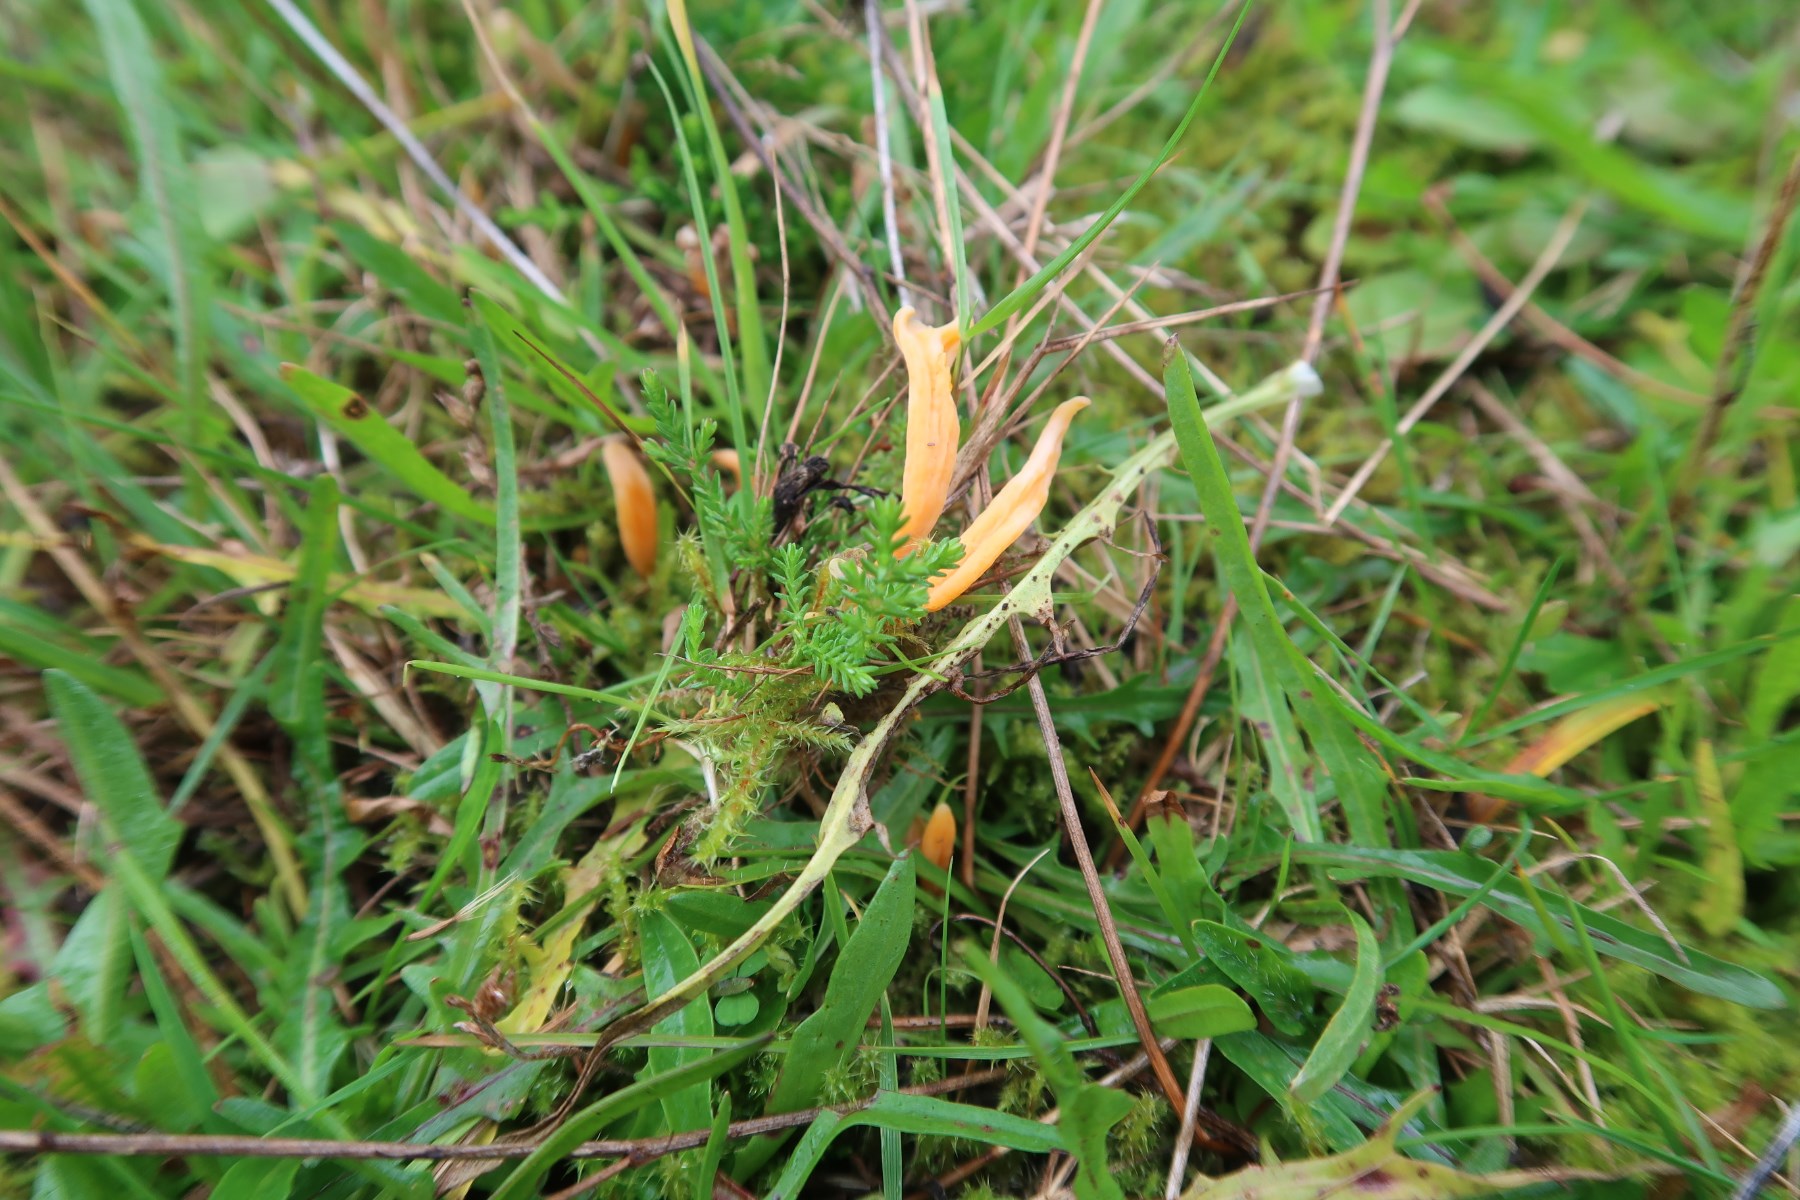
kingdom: Fungi
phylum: Basidiomycota
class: Agaricomycetes
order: Agaricales
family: Clavariaceae
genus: Clavulinopsis
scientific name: Clavulinopsis luteoalba
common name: abrikos-køllesvamp
